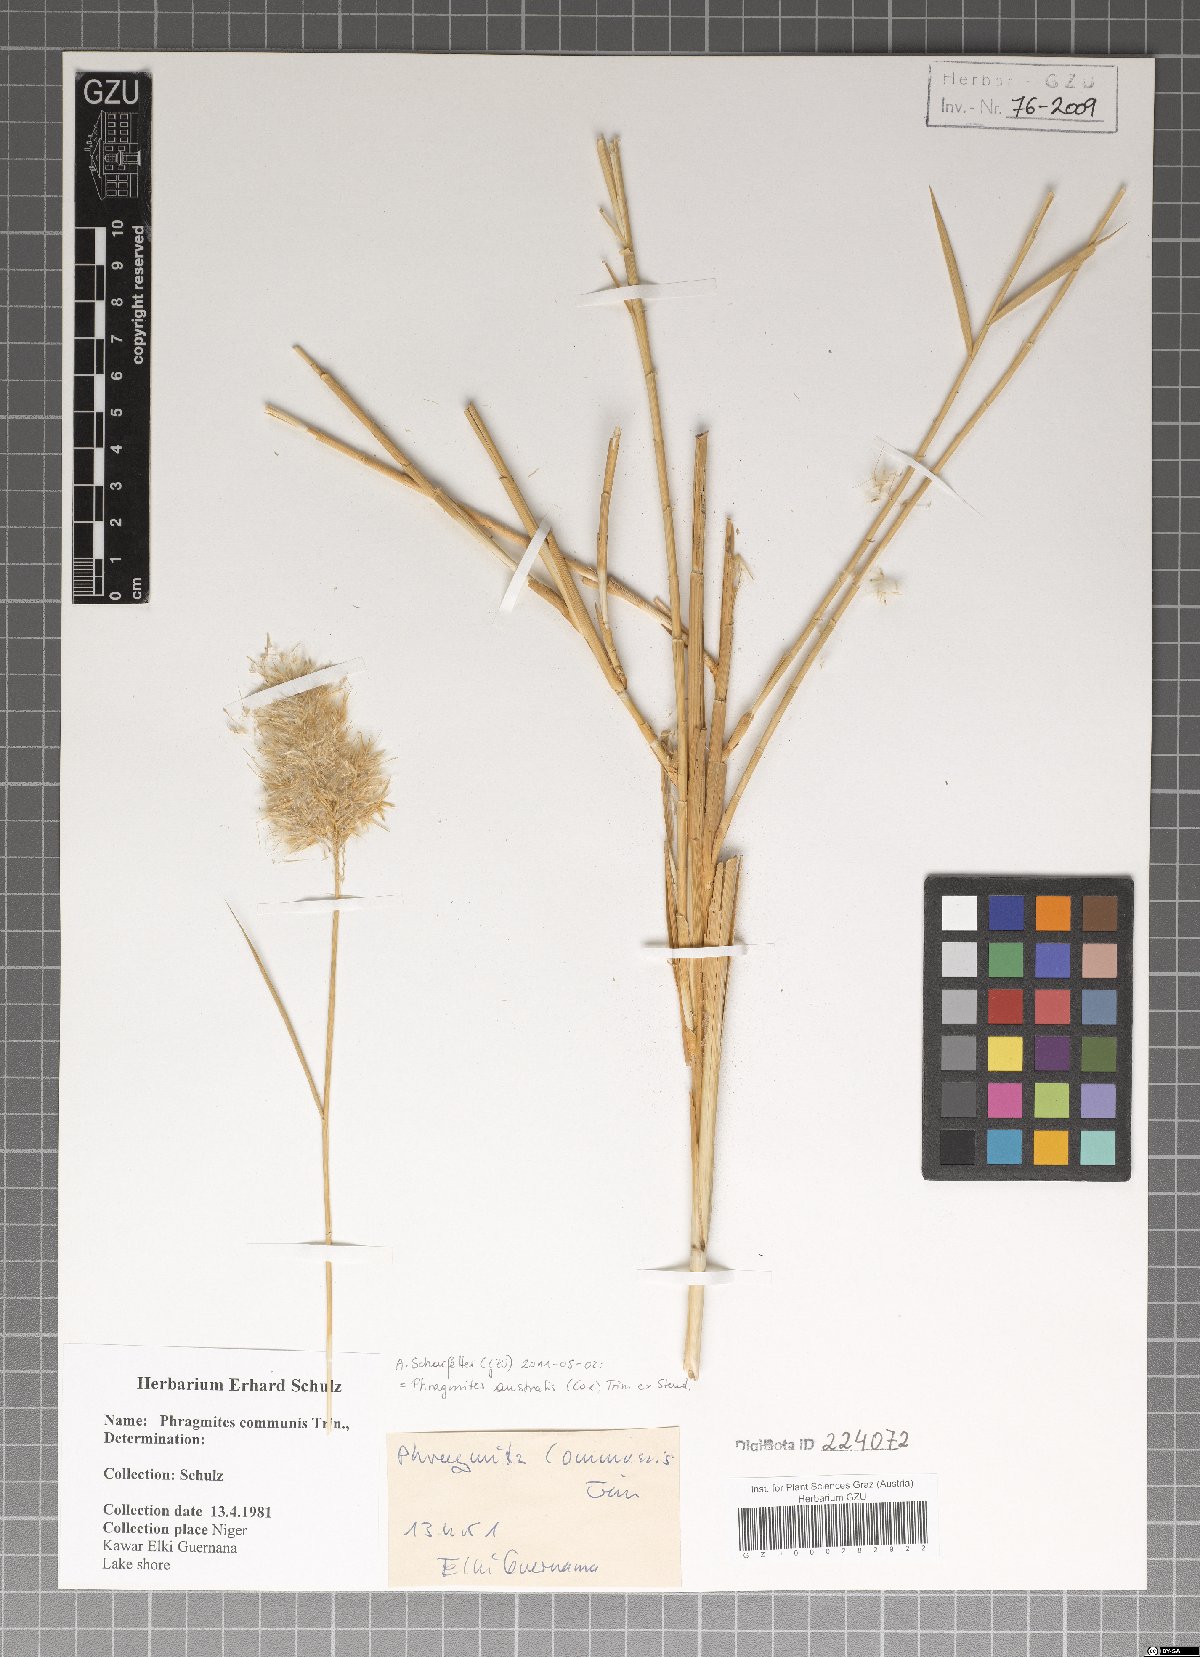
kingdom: Plantae
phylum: Tracheophyta
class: Liliopsida
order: Poales
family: Poaceae
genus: Phragmites
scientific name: Phragmites australis
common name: Common reed
